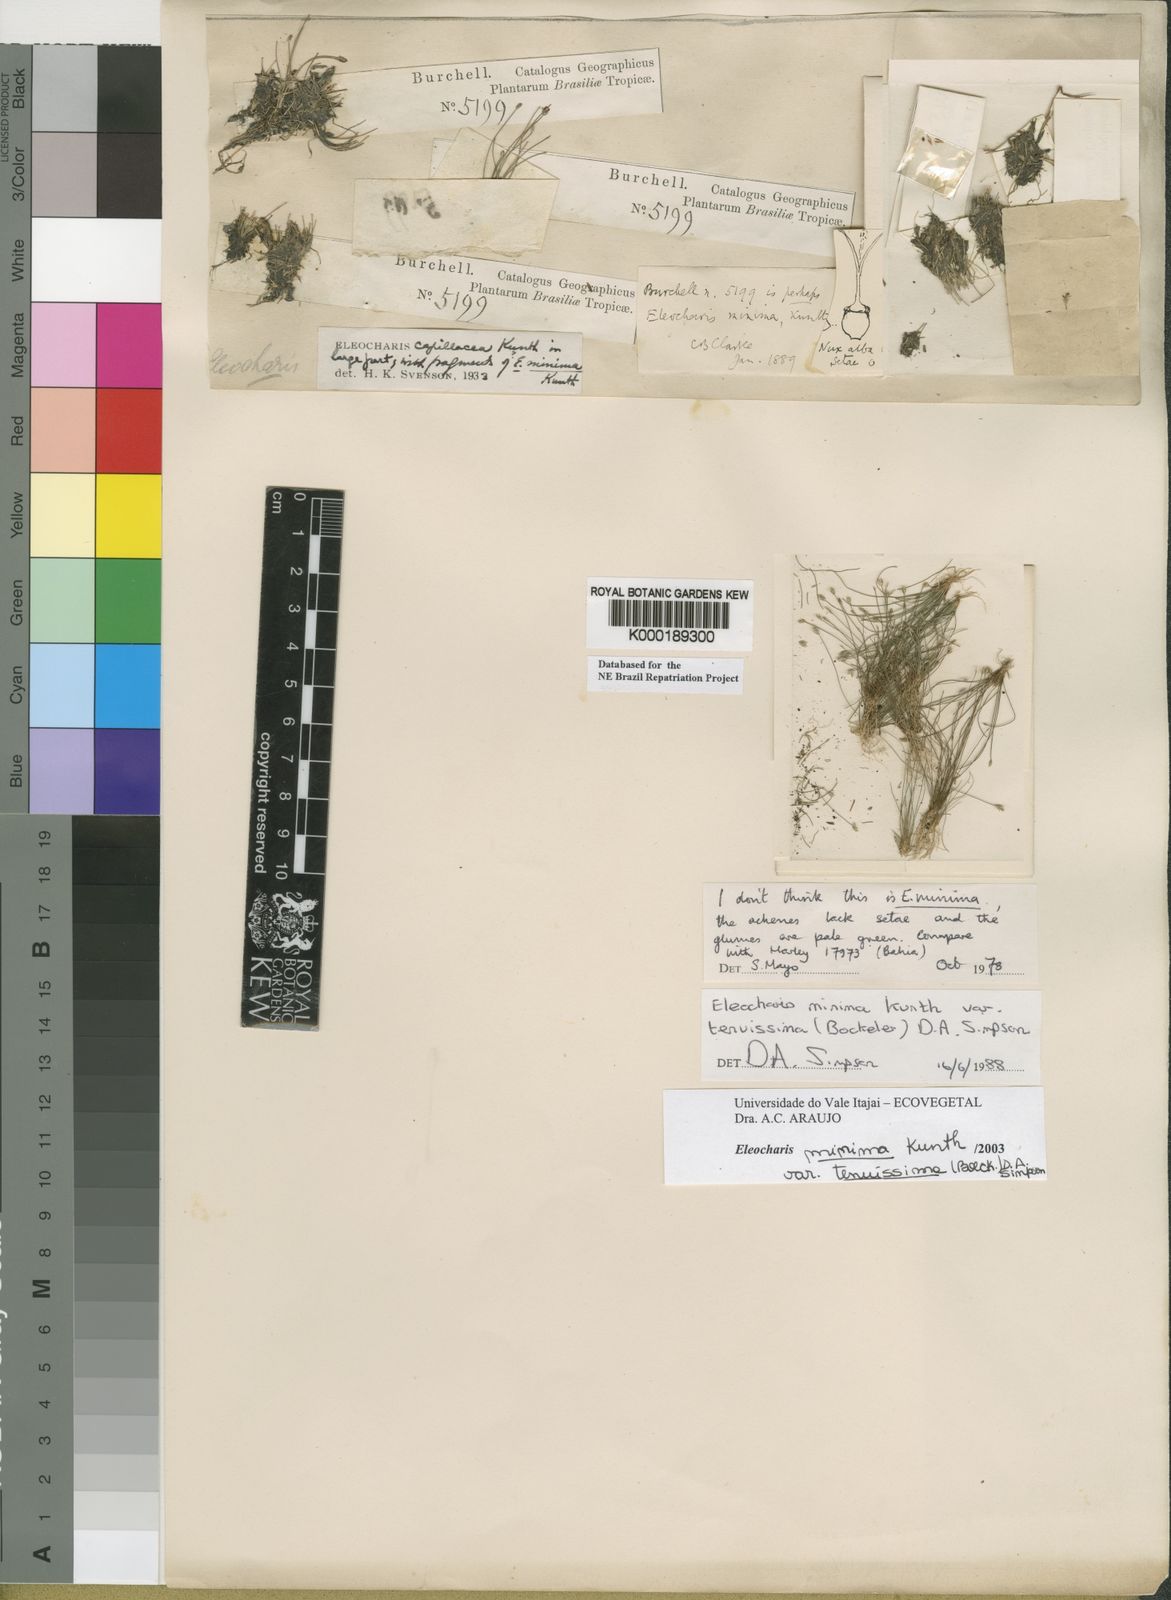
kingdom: Plantae
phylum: Tracheophyta
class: Liliopsida
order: Poales
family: Cyperaceae
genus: Eleocharis
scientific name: Eleocharis minima
